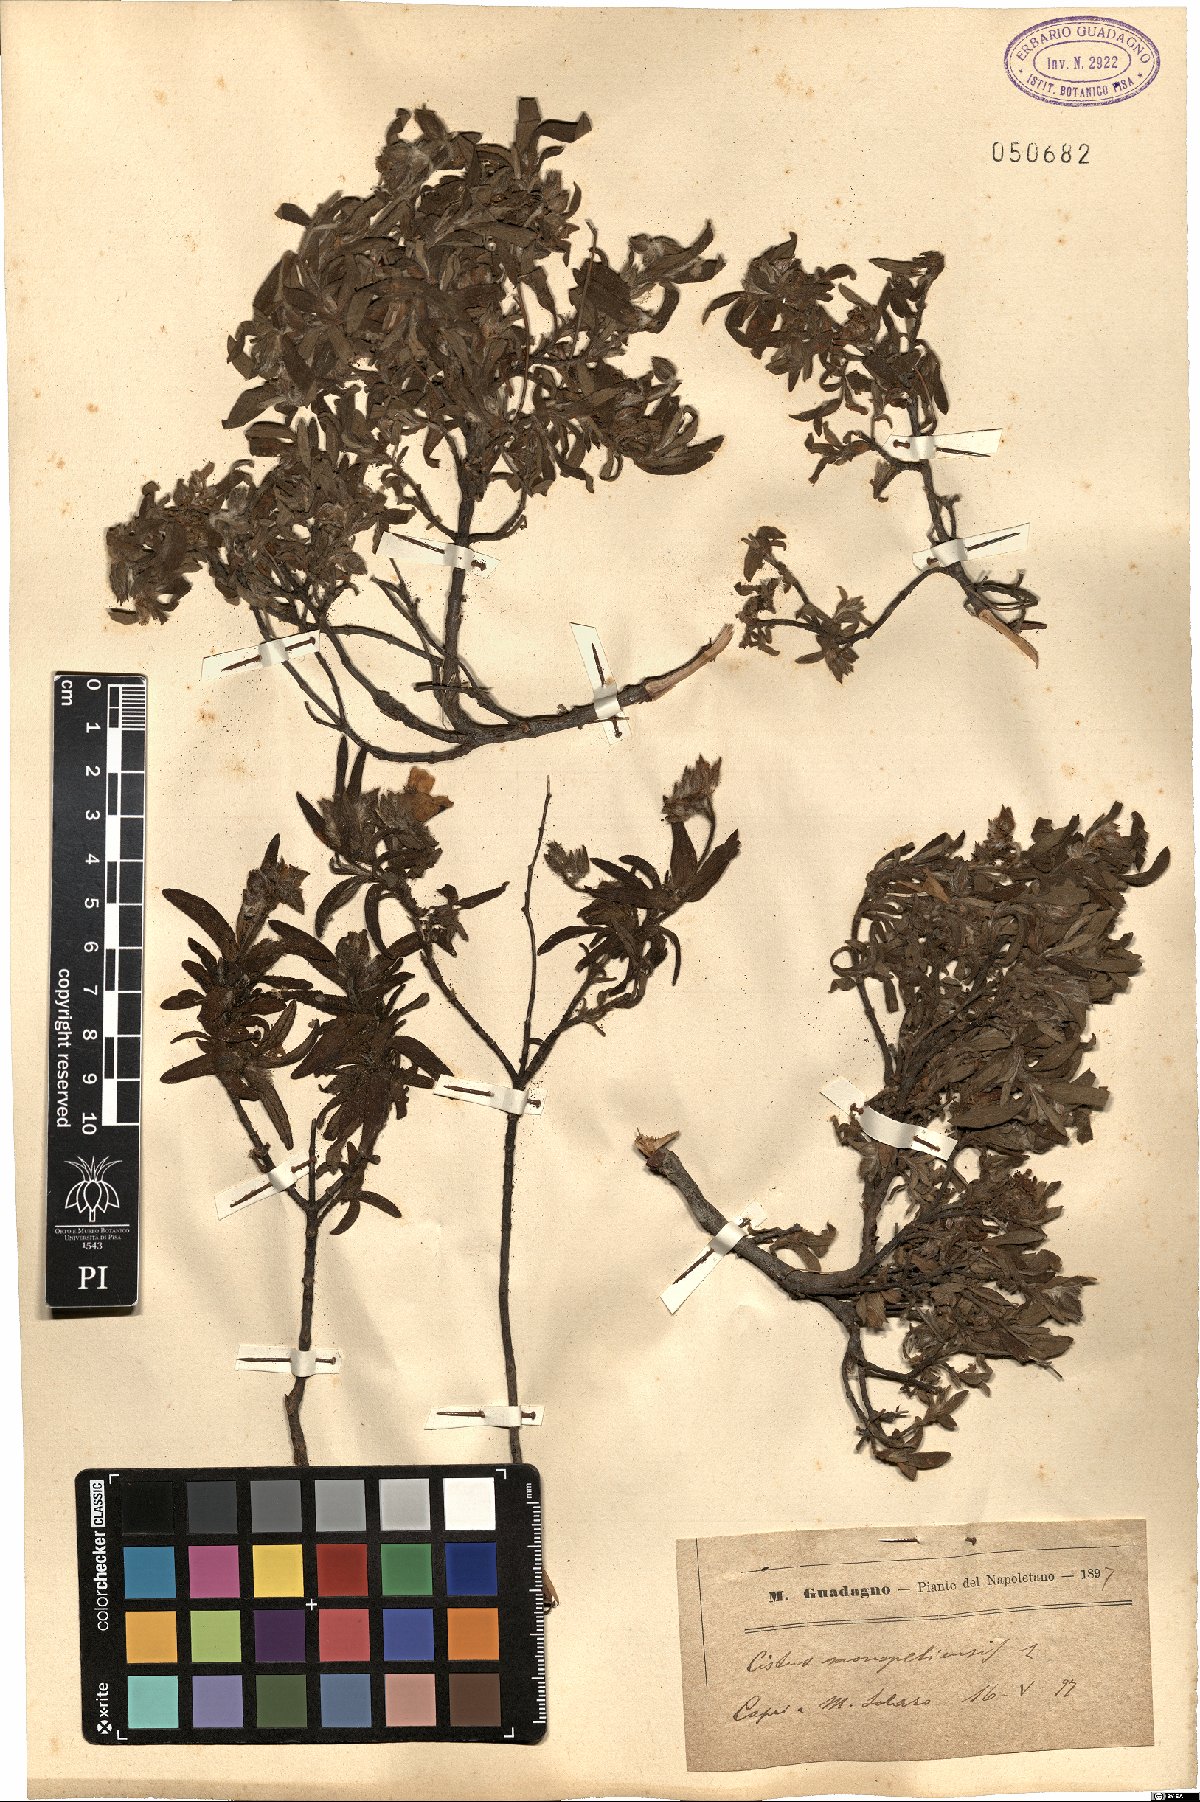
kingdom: Plantae
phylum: Tracheophyta
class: Magnoliopsida
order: Malvales
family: Cistaceae
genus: Cistus
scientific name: Cistus monspeliensis
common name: Montpelier cistus
